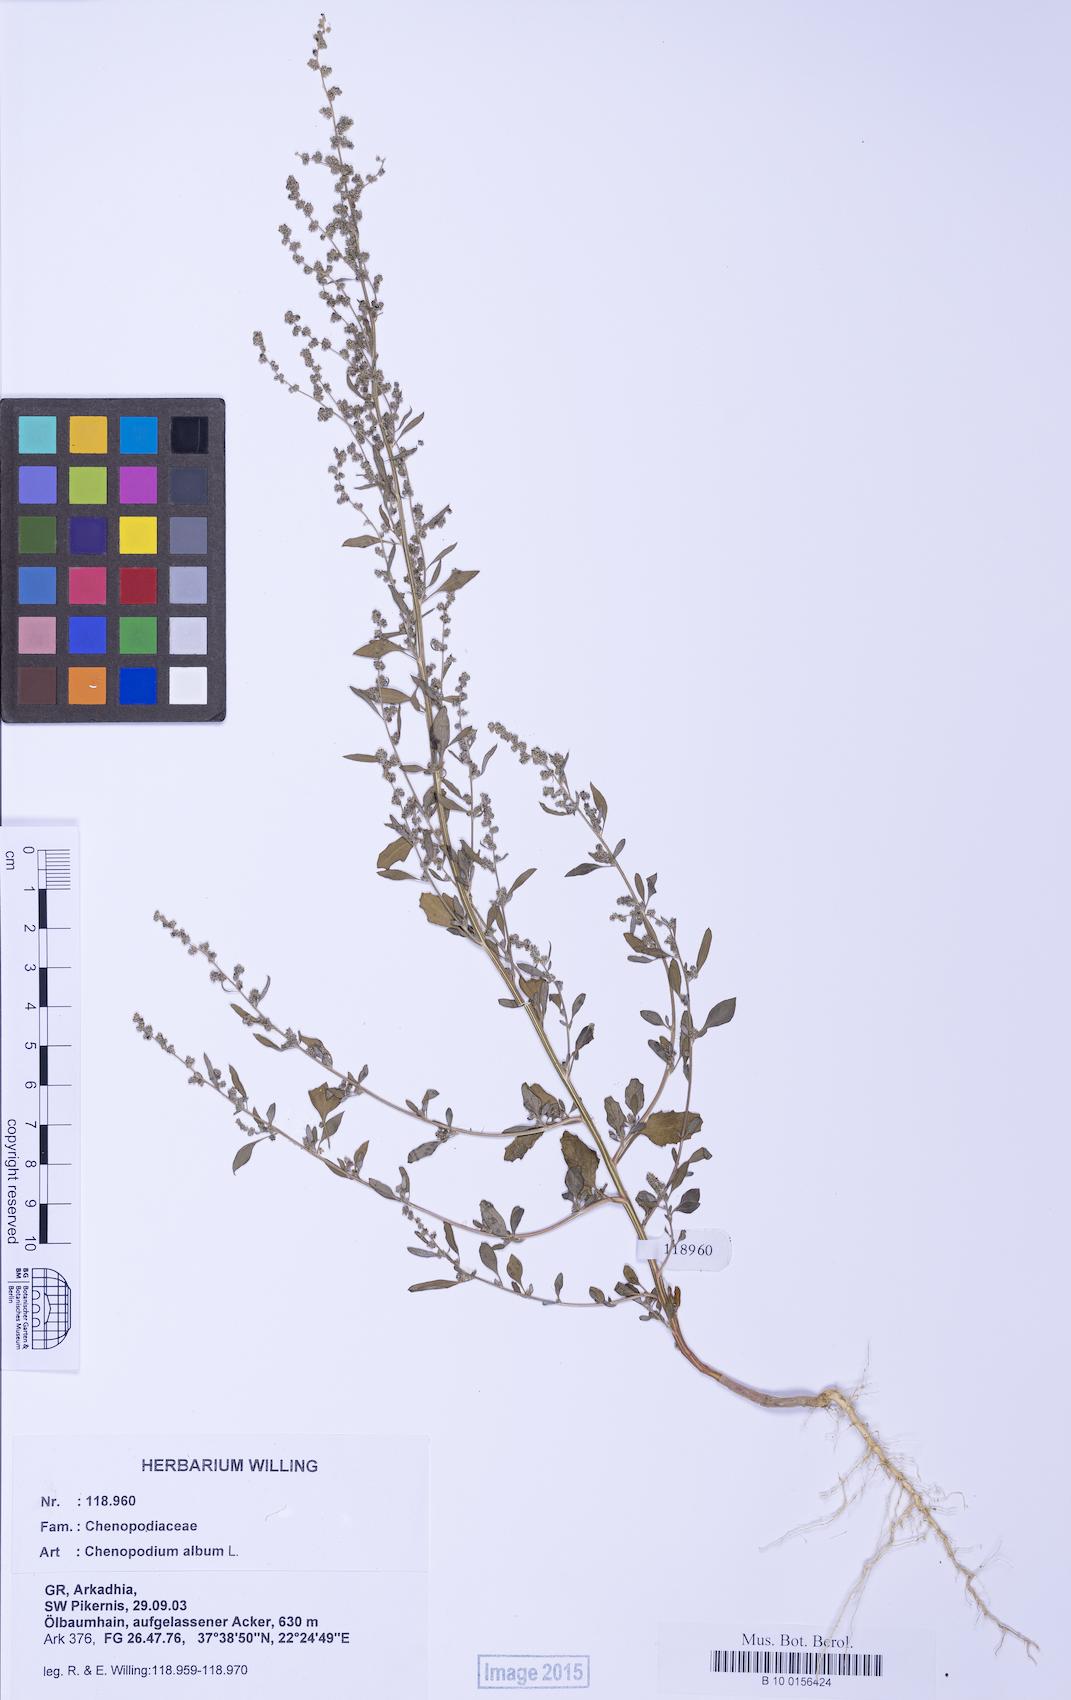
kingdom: Plantae
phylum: Tracheophyta
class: Magnoliopsida
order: Caryophyllales
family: Amaranthaceae
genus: Chenopodium
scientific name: Chenopodium album
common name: Fat-hen
